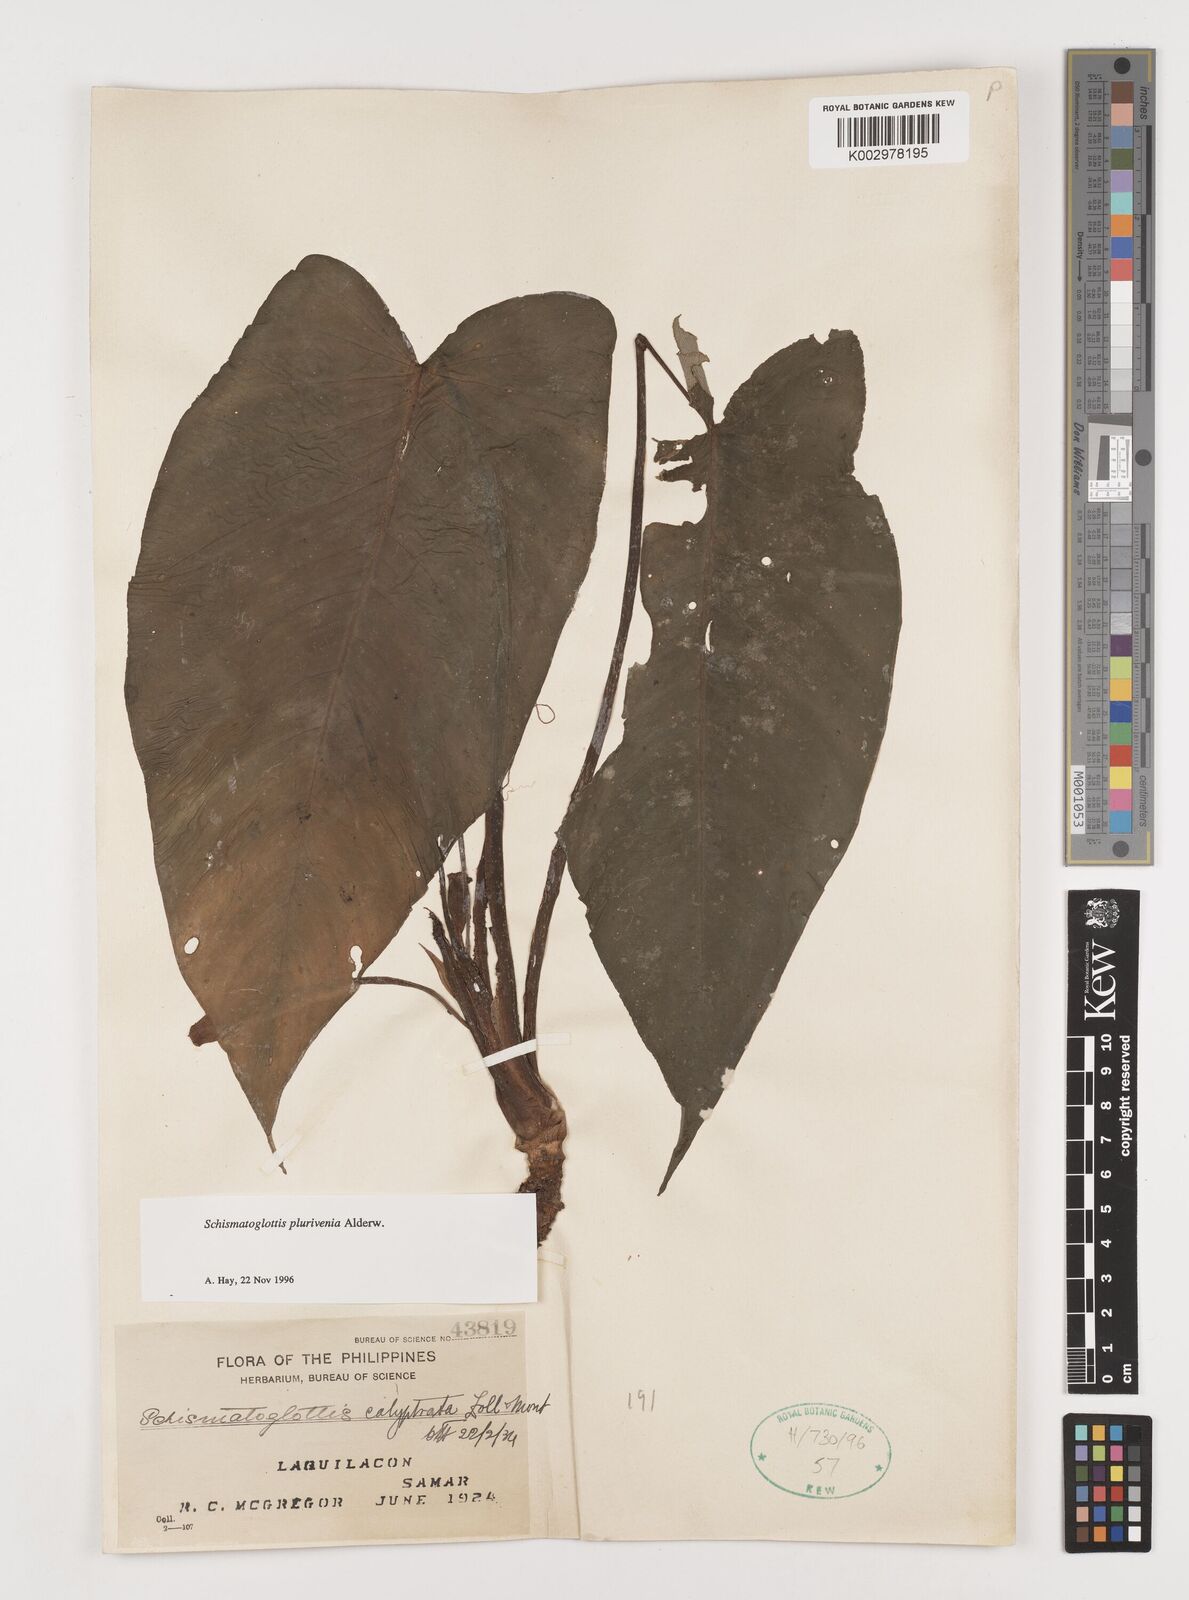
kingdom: Plantae
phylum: Tracheophyta
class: Liliopsida
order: Alismatales
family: Araceae
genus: Schismatoglottis
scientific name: Schismatoglottis plurivenia
